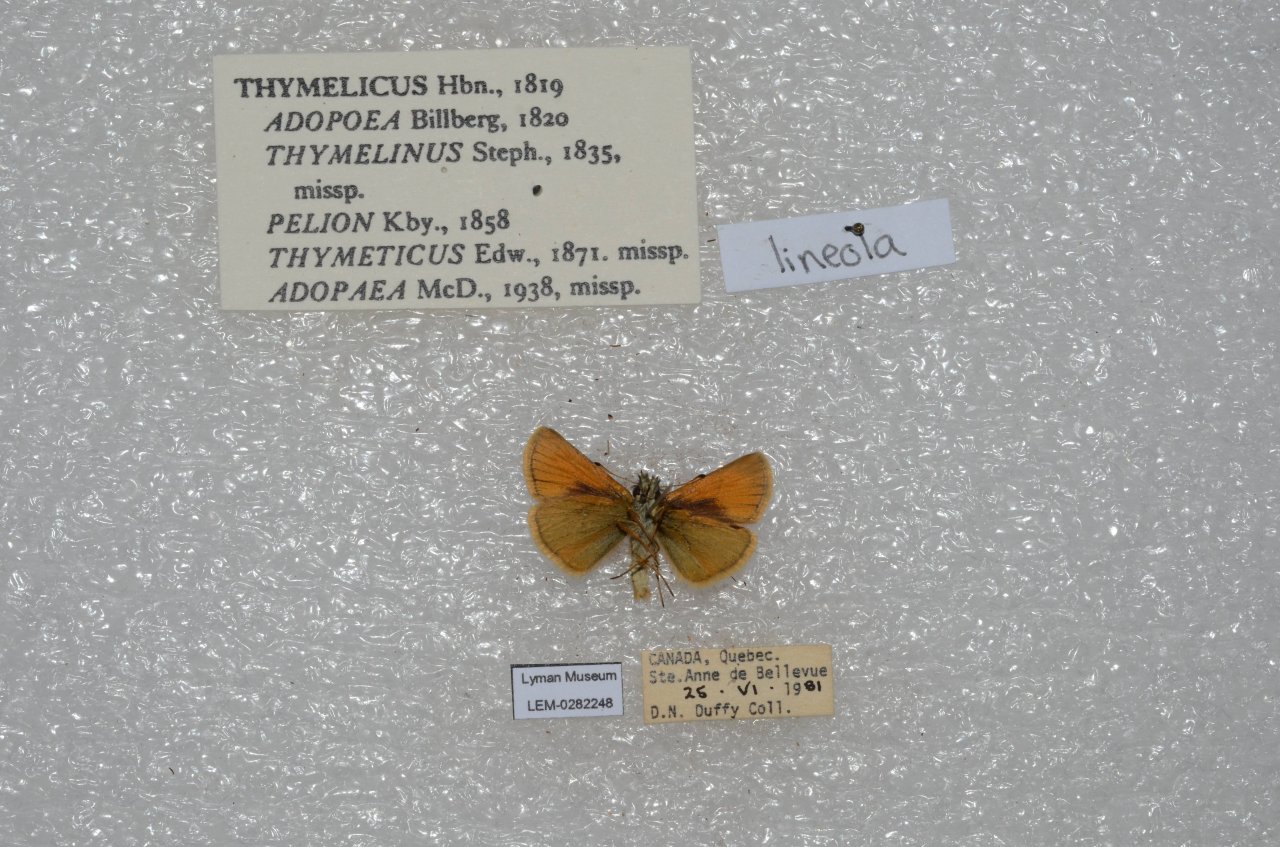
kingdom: Animalia
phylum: Arthropoda
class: Insecta
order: Lepidoptera
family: Hesperiidae
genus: Thymelicus
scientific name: Thymelicus lineola
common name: European Skipper
